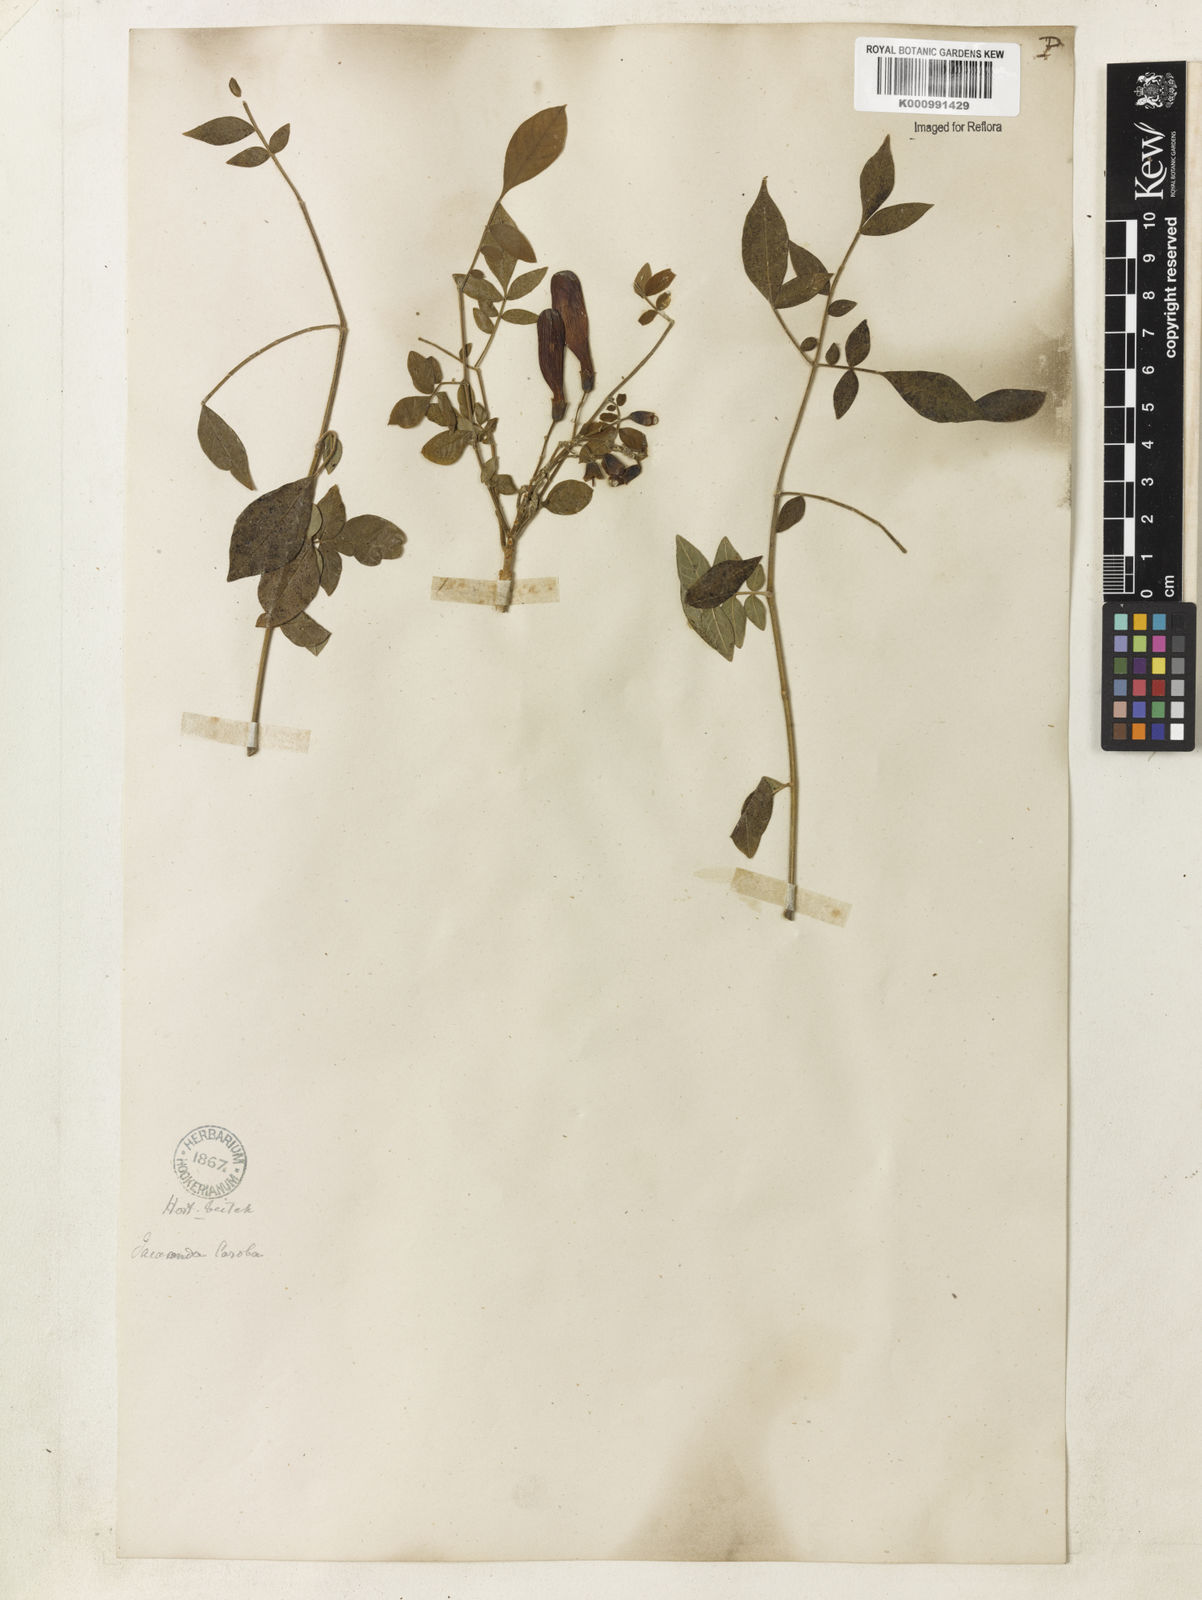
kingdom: Plantae
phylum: Tracheophyta
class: Magnoliopsida
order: Lamiales
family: Bignoniaceae
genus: Jacaranda
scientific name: Jacaranda jasminoides
